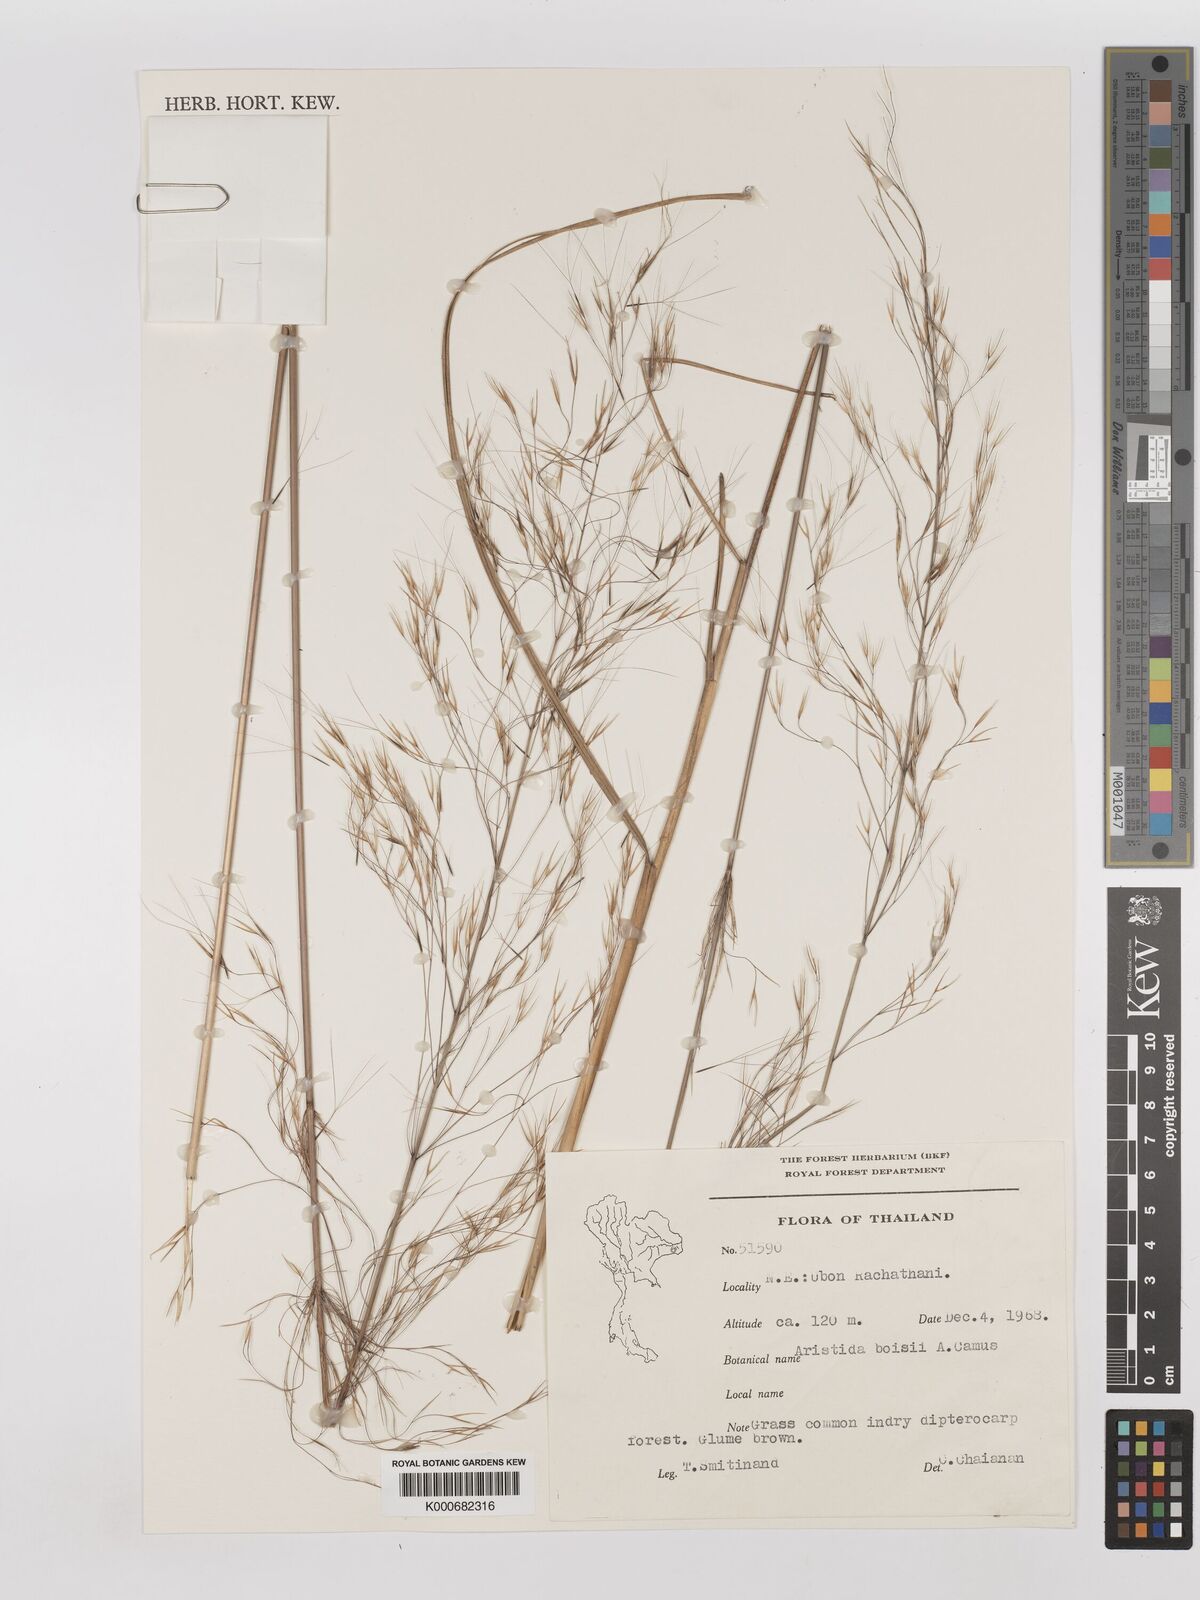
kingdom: Plantae
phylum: Tracheophyta
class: Liliopsida
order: Poales
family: Poaceae
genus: Aristida
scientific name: Aristida culionensis
